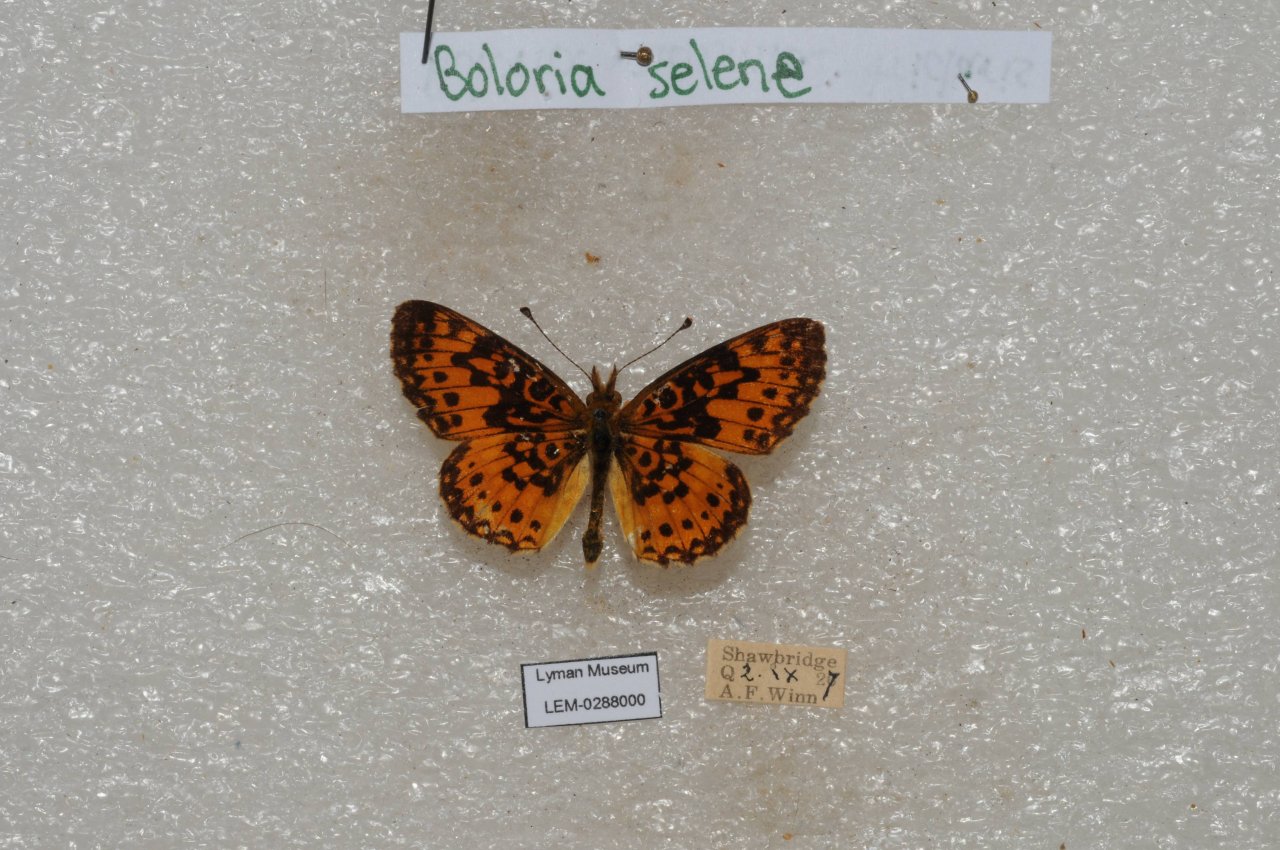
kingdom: Animalia
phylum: Arthropoda
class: Insecta
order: Lepidoptera
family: Nymphalidae
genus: Boloria
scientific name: Boloria selene
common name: Silver-bordered Fritillary
